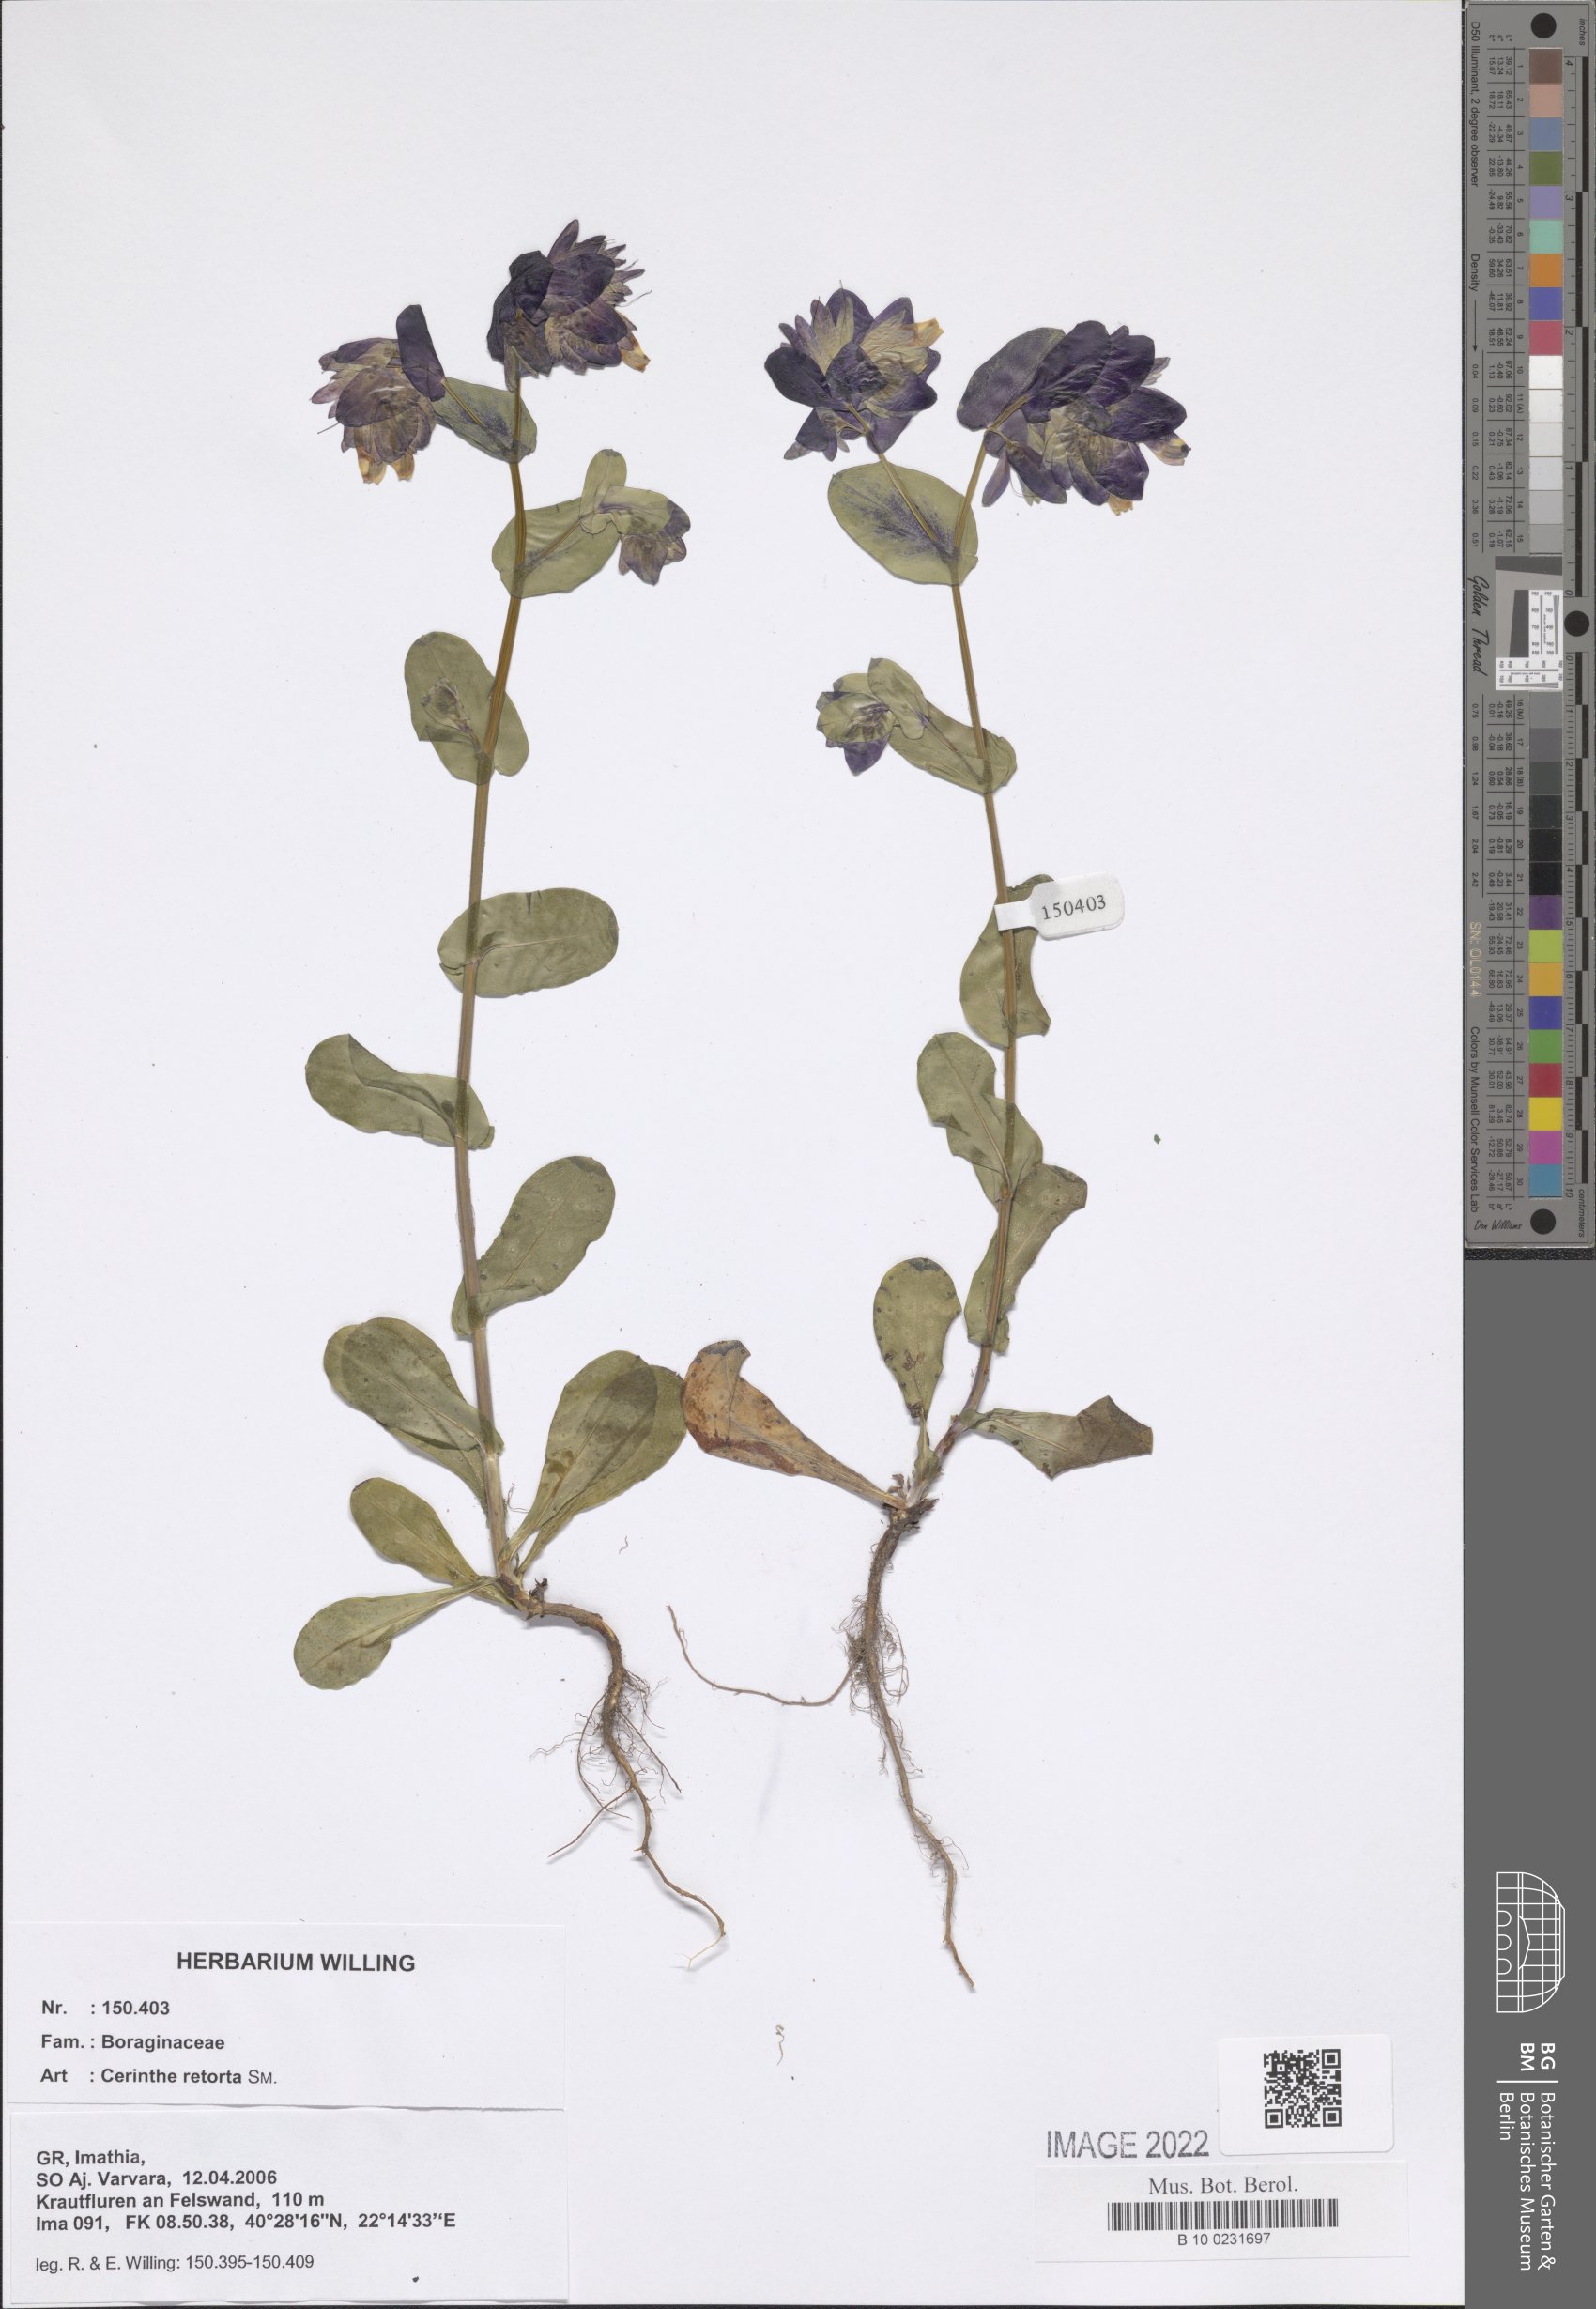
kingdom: Plantae
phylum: Tracheophyta
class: Magnoliopsida
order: Boraginales
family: Boraginaceae
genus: Cerinthe
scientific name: Cerinthe retorta
